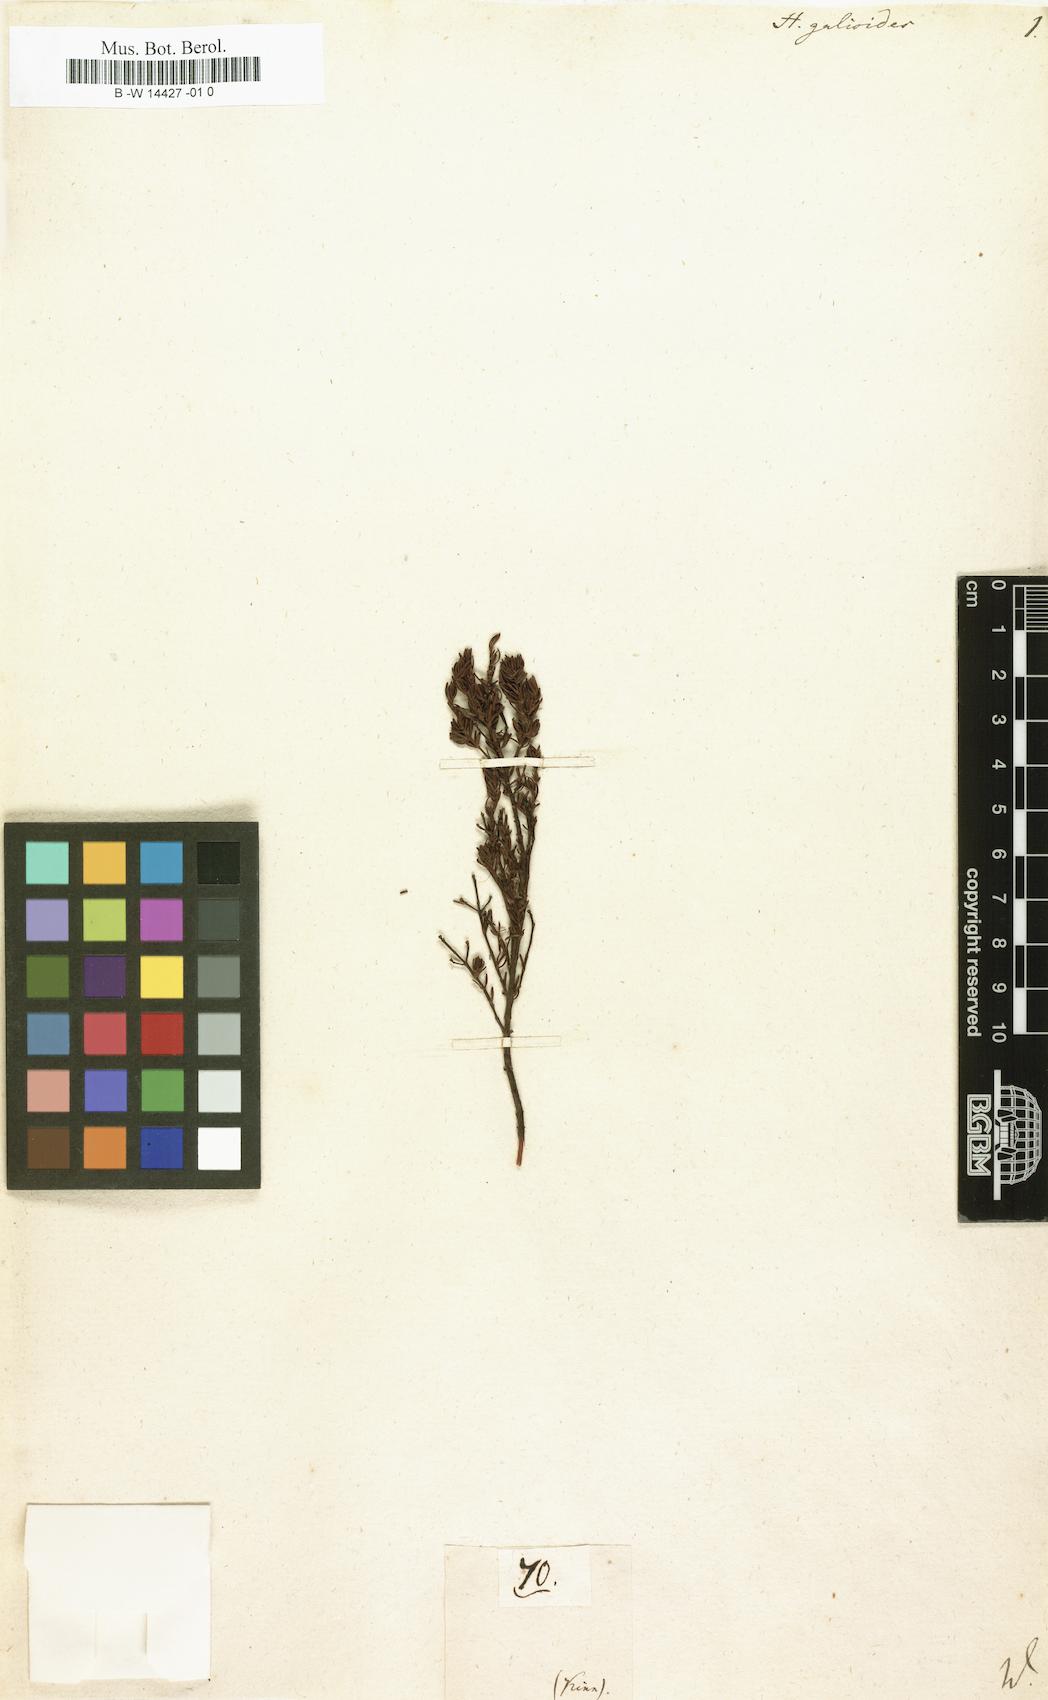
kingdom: Plantae
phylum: Tracheophyta
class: Magnoliopsida
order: Malpighiales
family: Hypericaceae
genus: Hypericum
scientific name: Hypericum galioides
